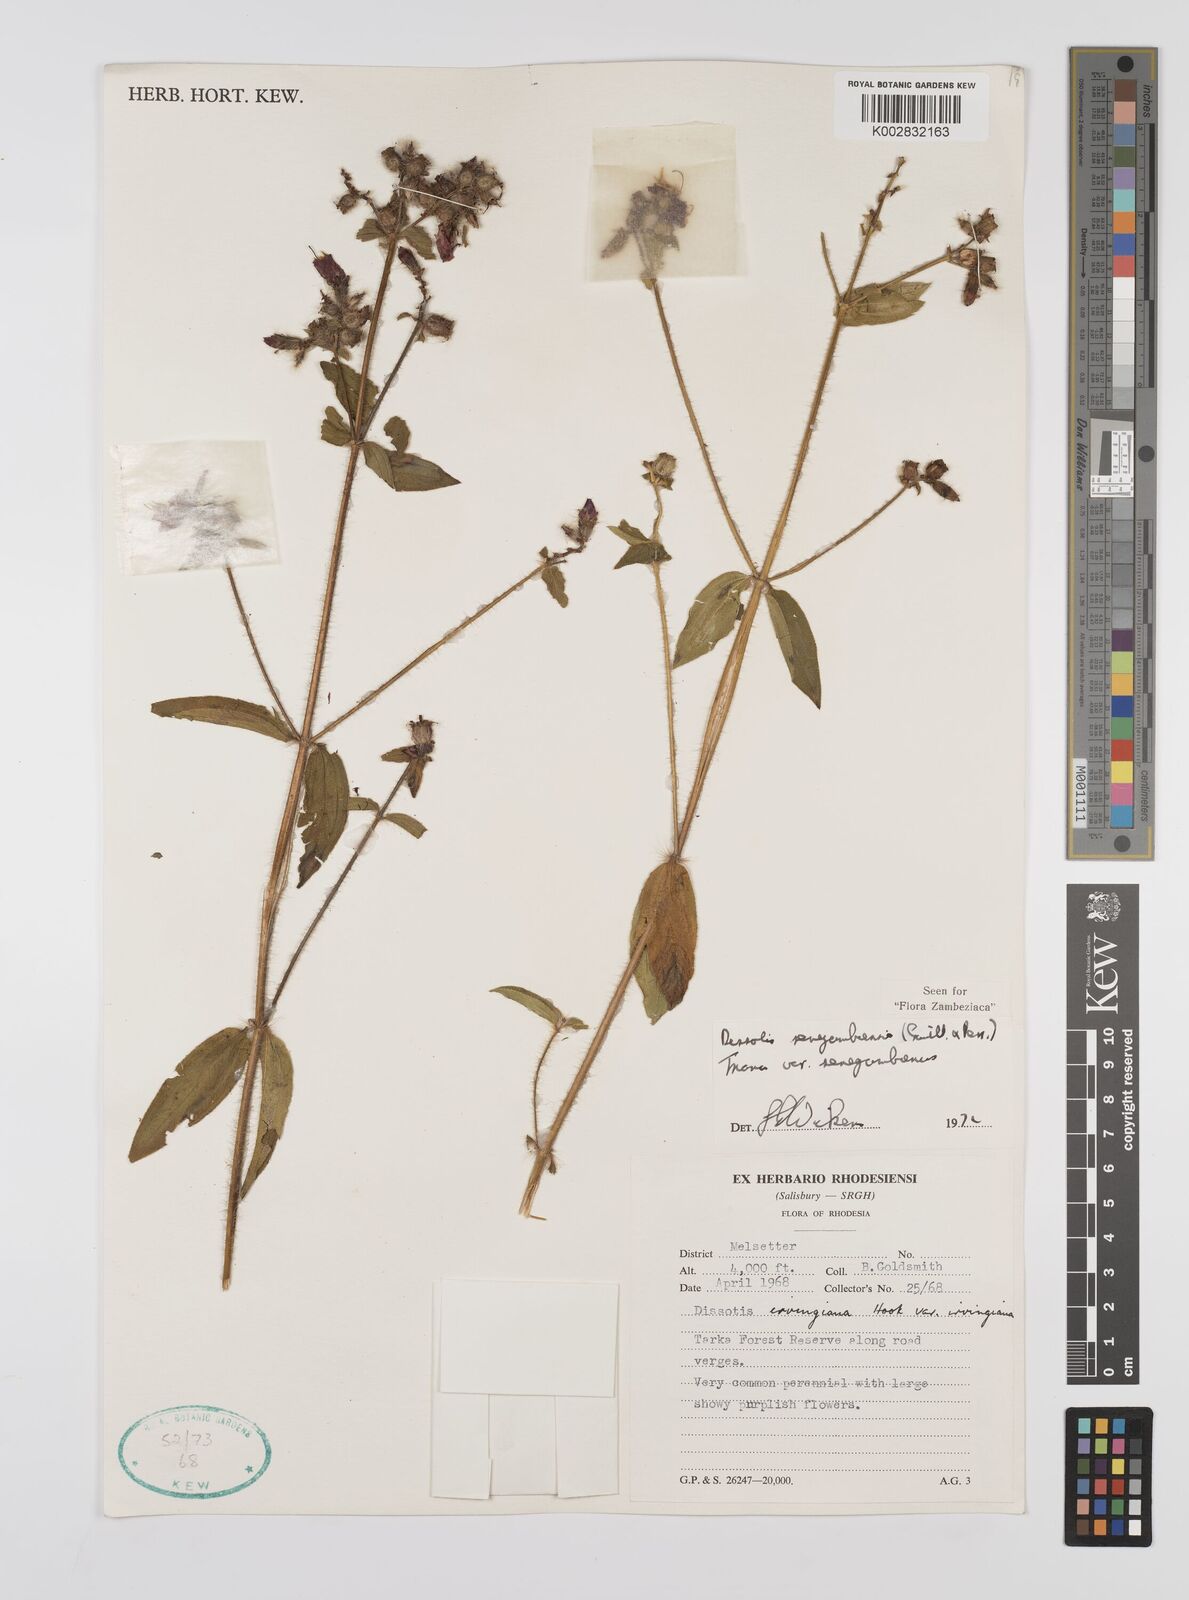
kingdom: Plantae
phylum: Tracheophyta
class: Magnoliopsida
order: Myrtales
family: Melastomataceae
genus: Nerophila
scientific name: Nerophila senegambiensis
